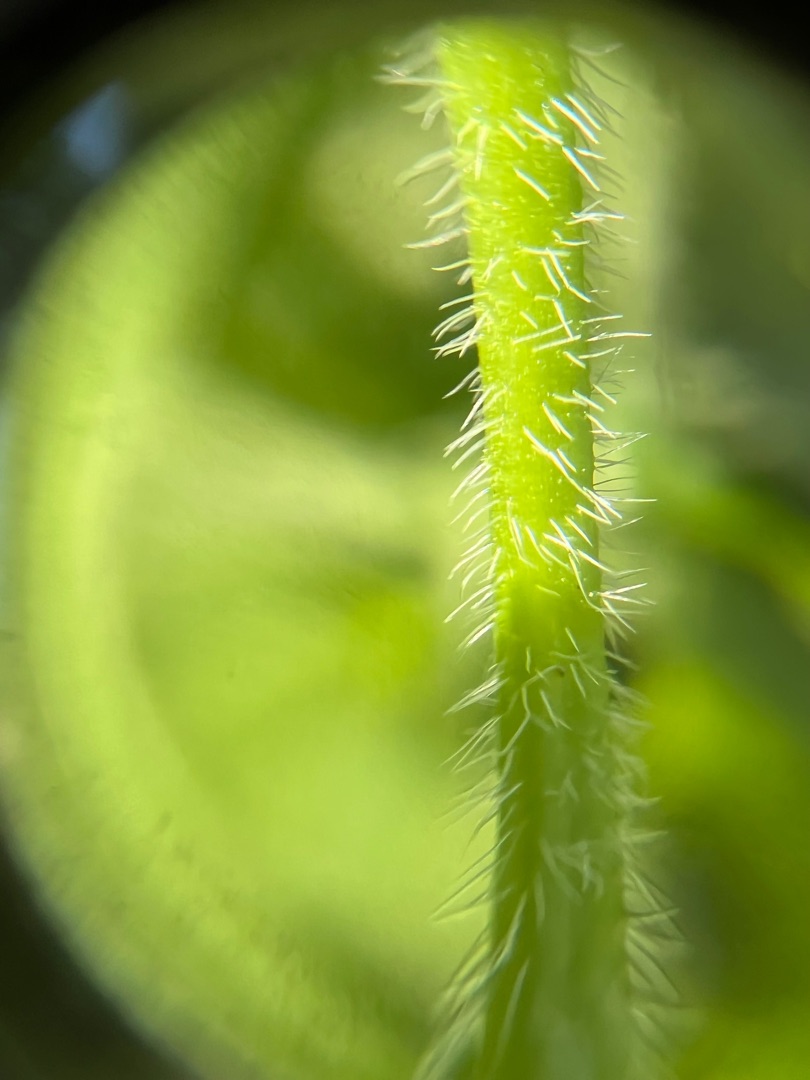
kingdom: Plantae
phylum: Tracheophyta
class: Magnoliopsida
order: Geraniales
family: Geraniaceae
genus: Geranium
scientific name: Geranium palustre
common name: Kær-storkenæb
